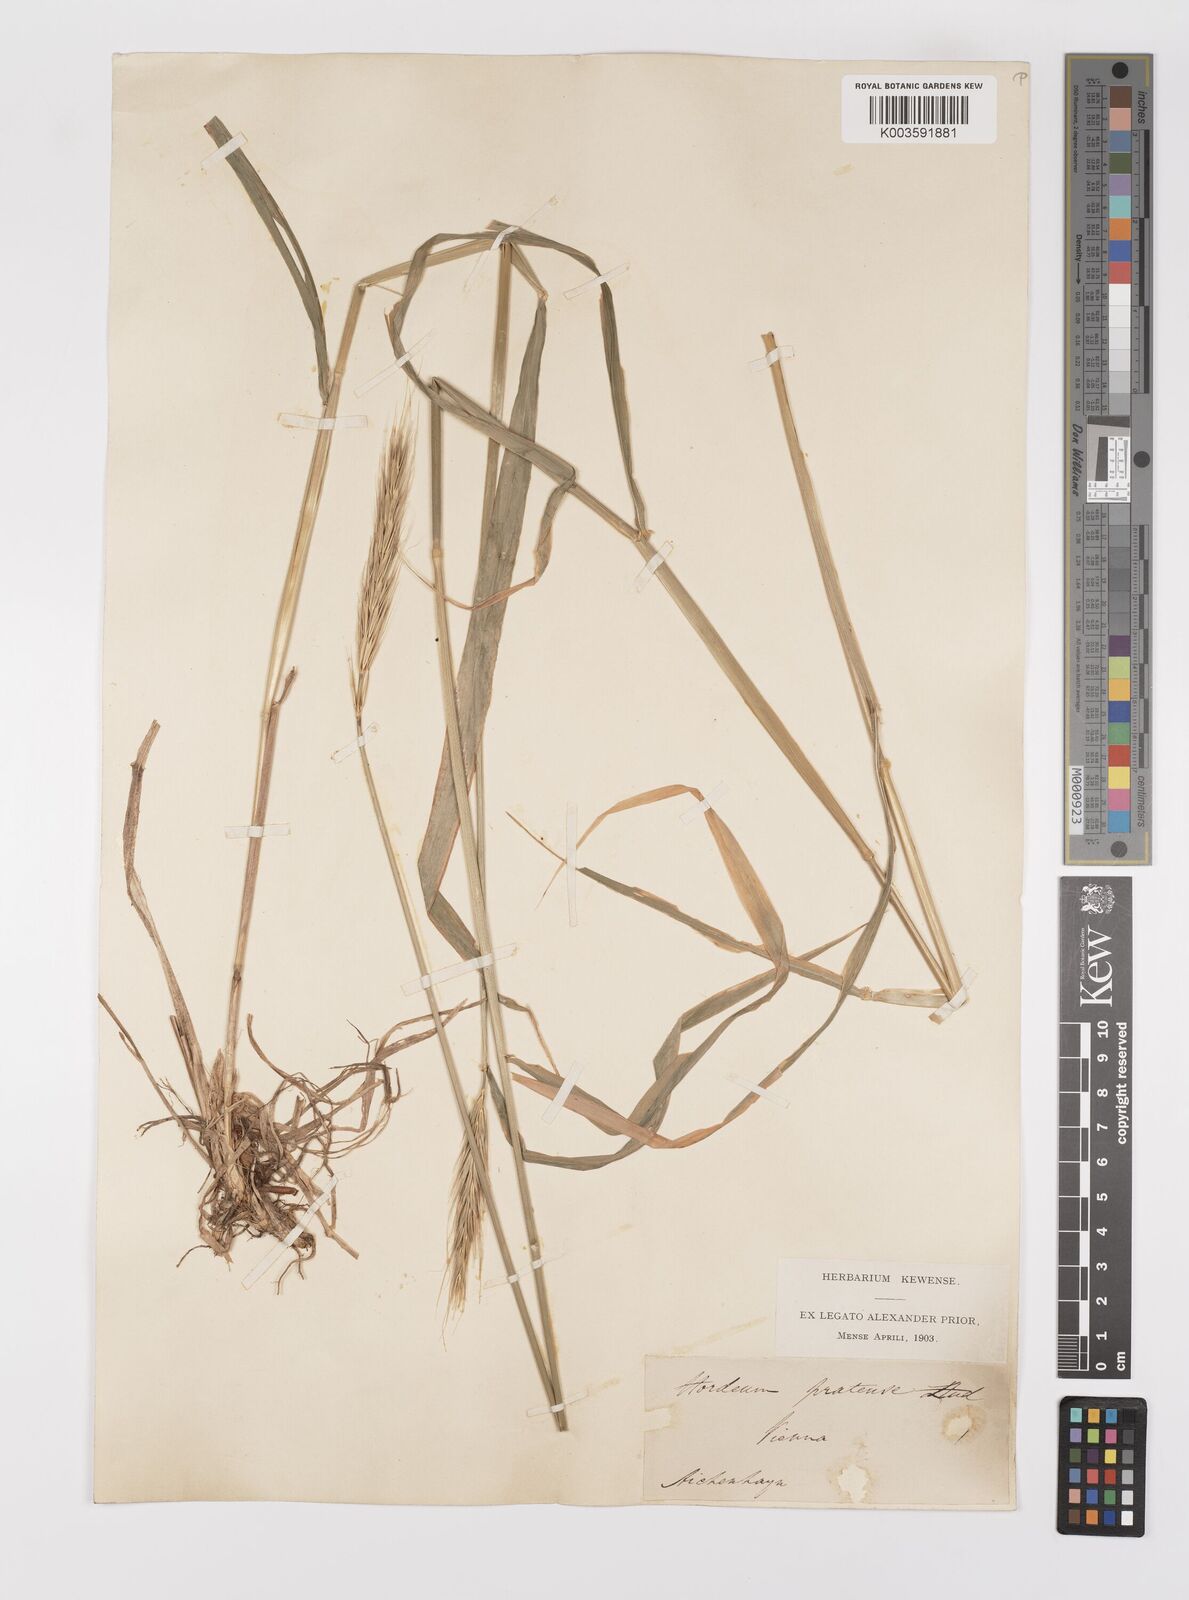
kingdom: Plantae
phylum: Tracheophyta
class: Liliopsida
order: Poales
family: Poaceae
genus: Hordelymus
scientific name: Hordelymus europaeus
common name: Wood-barley
